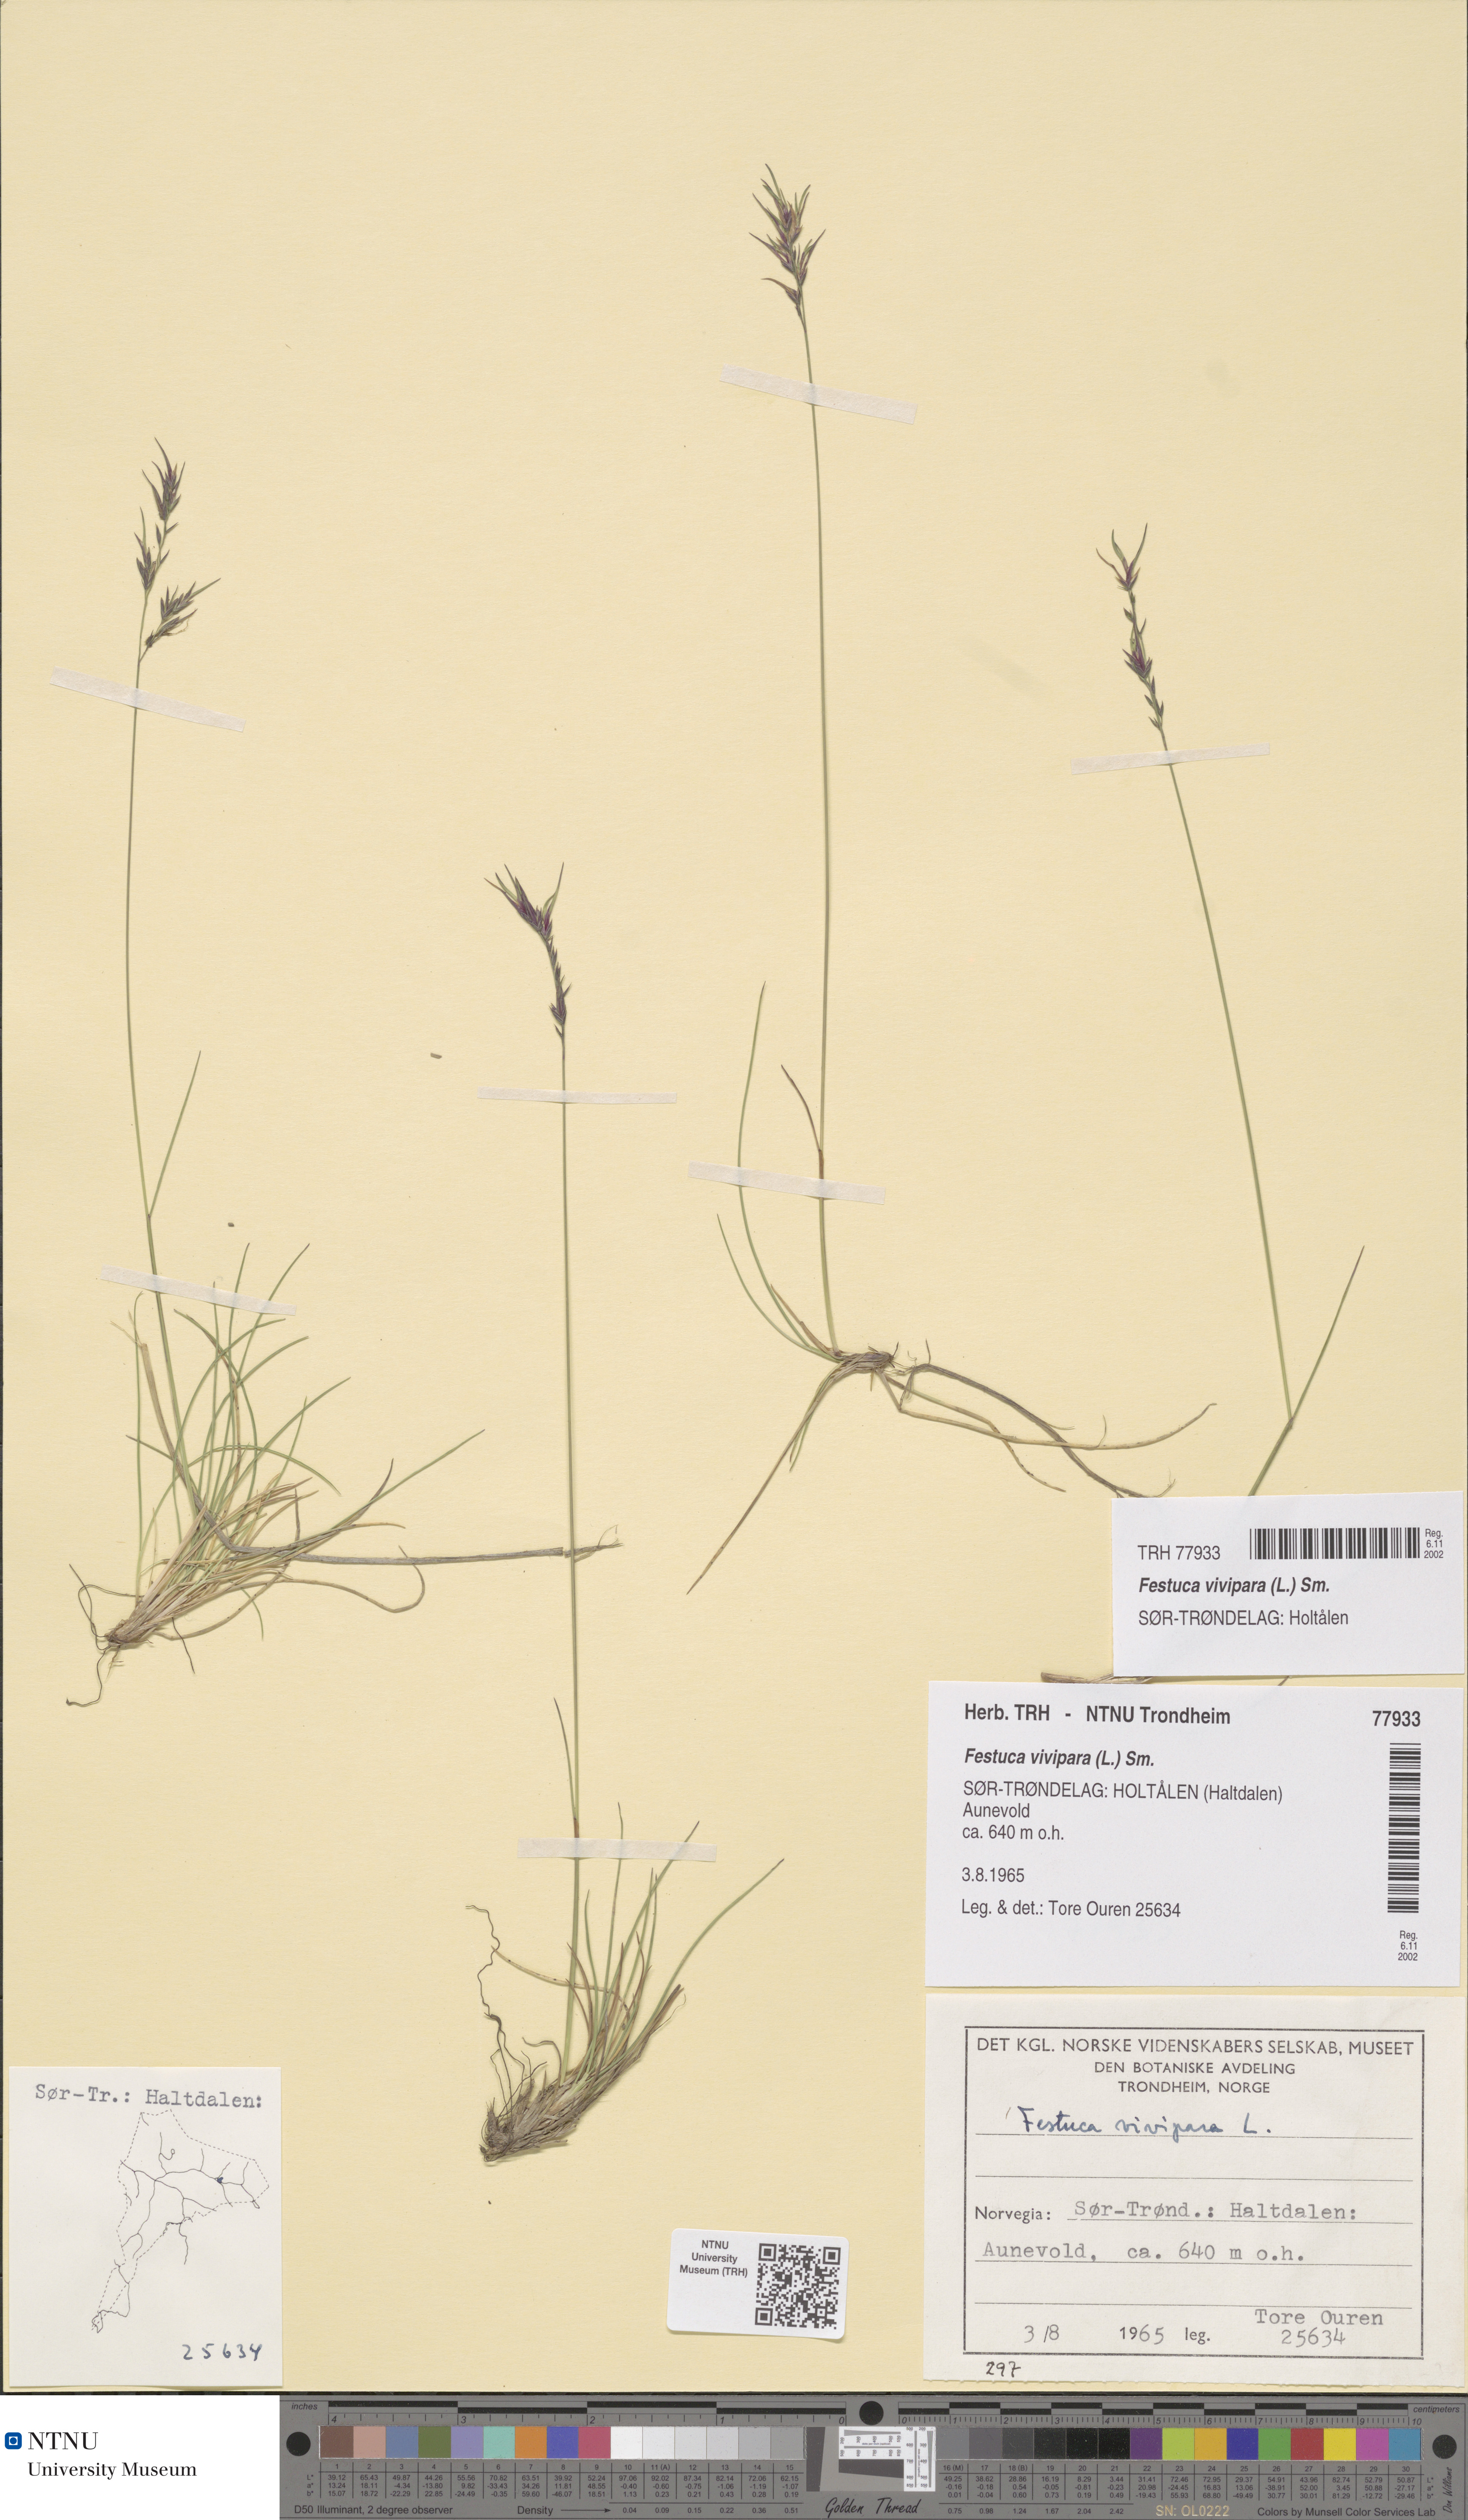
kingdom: Plantae
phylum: Tracheophyta
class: Liliopsida
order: Poales
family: Poaceae
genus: Festuca
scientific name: Festuca vivipara
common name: Viviparous sheep's-fescue
